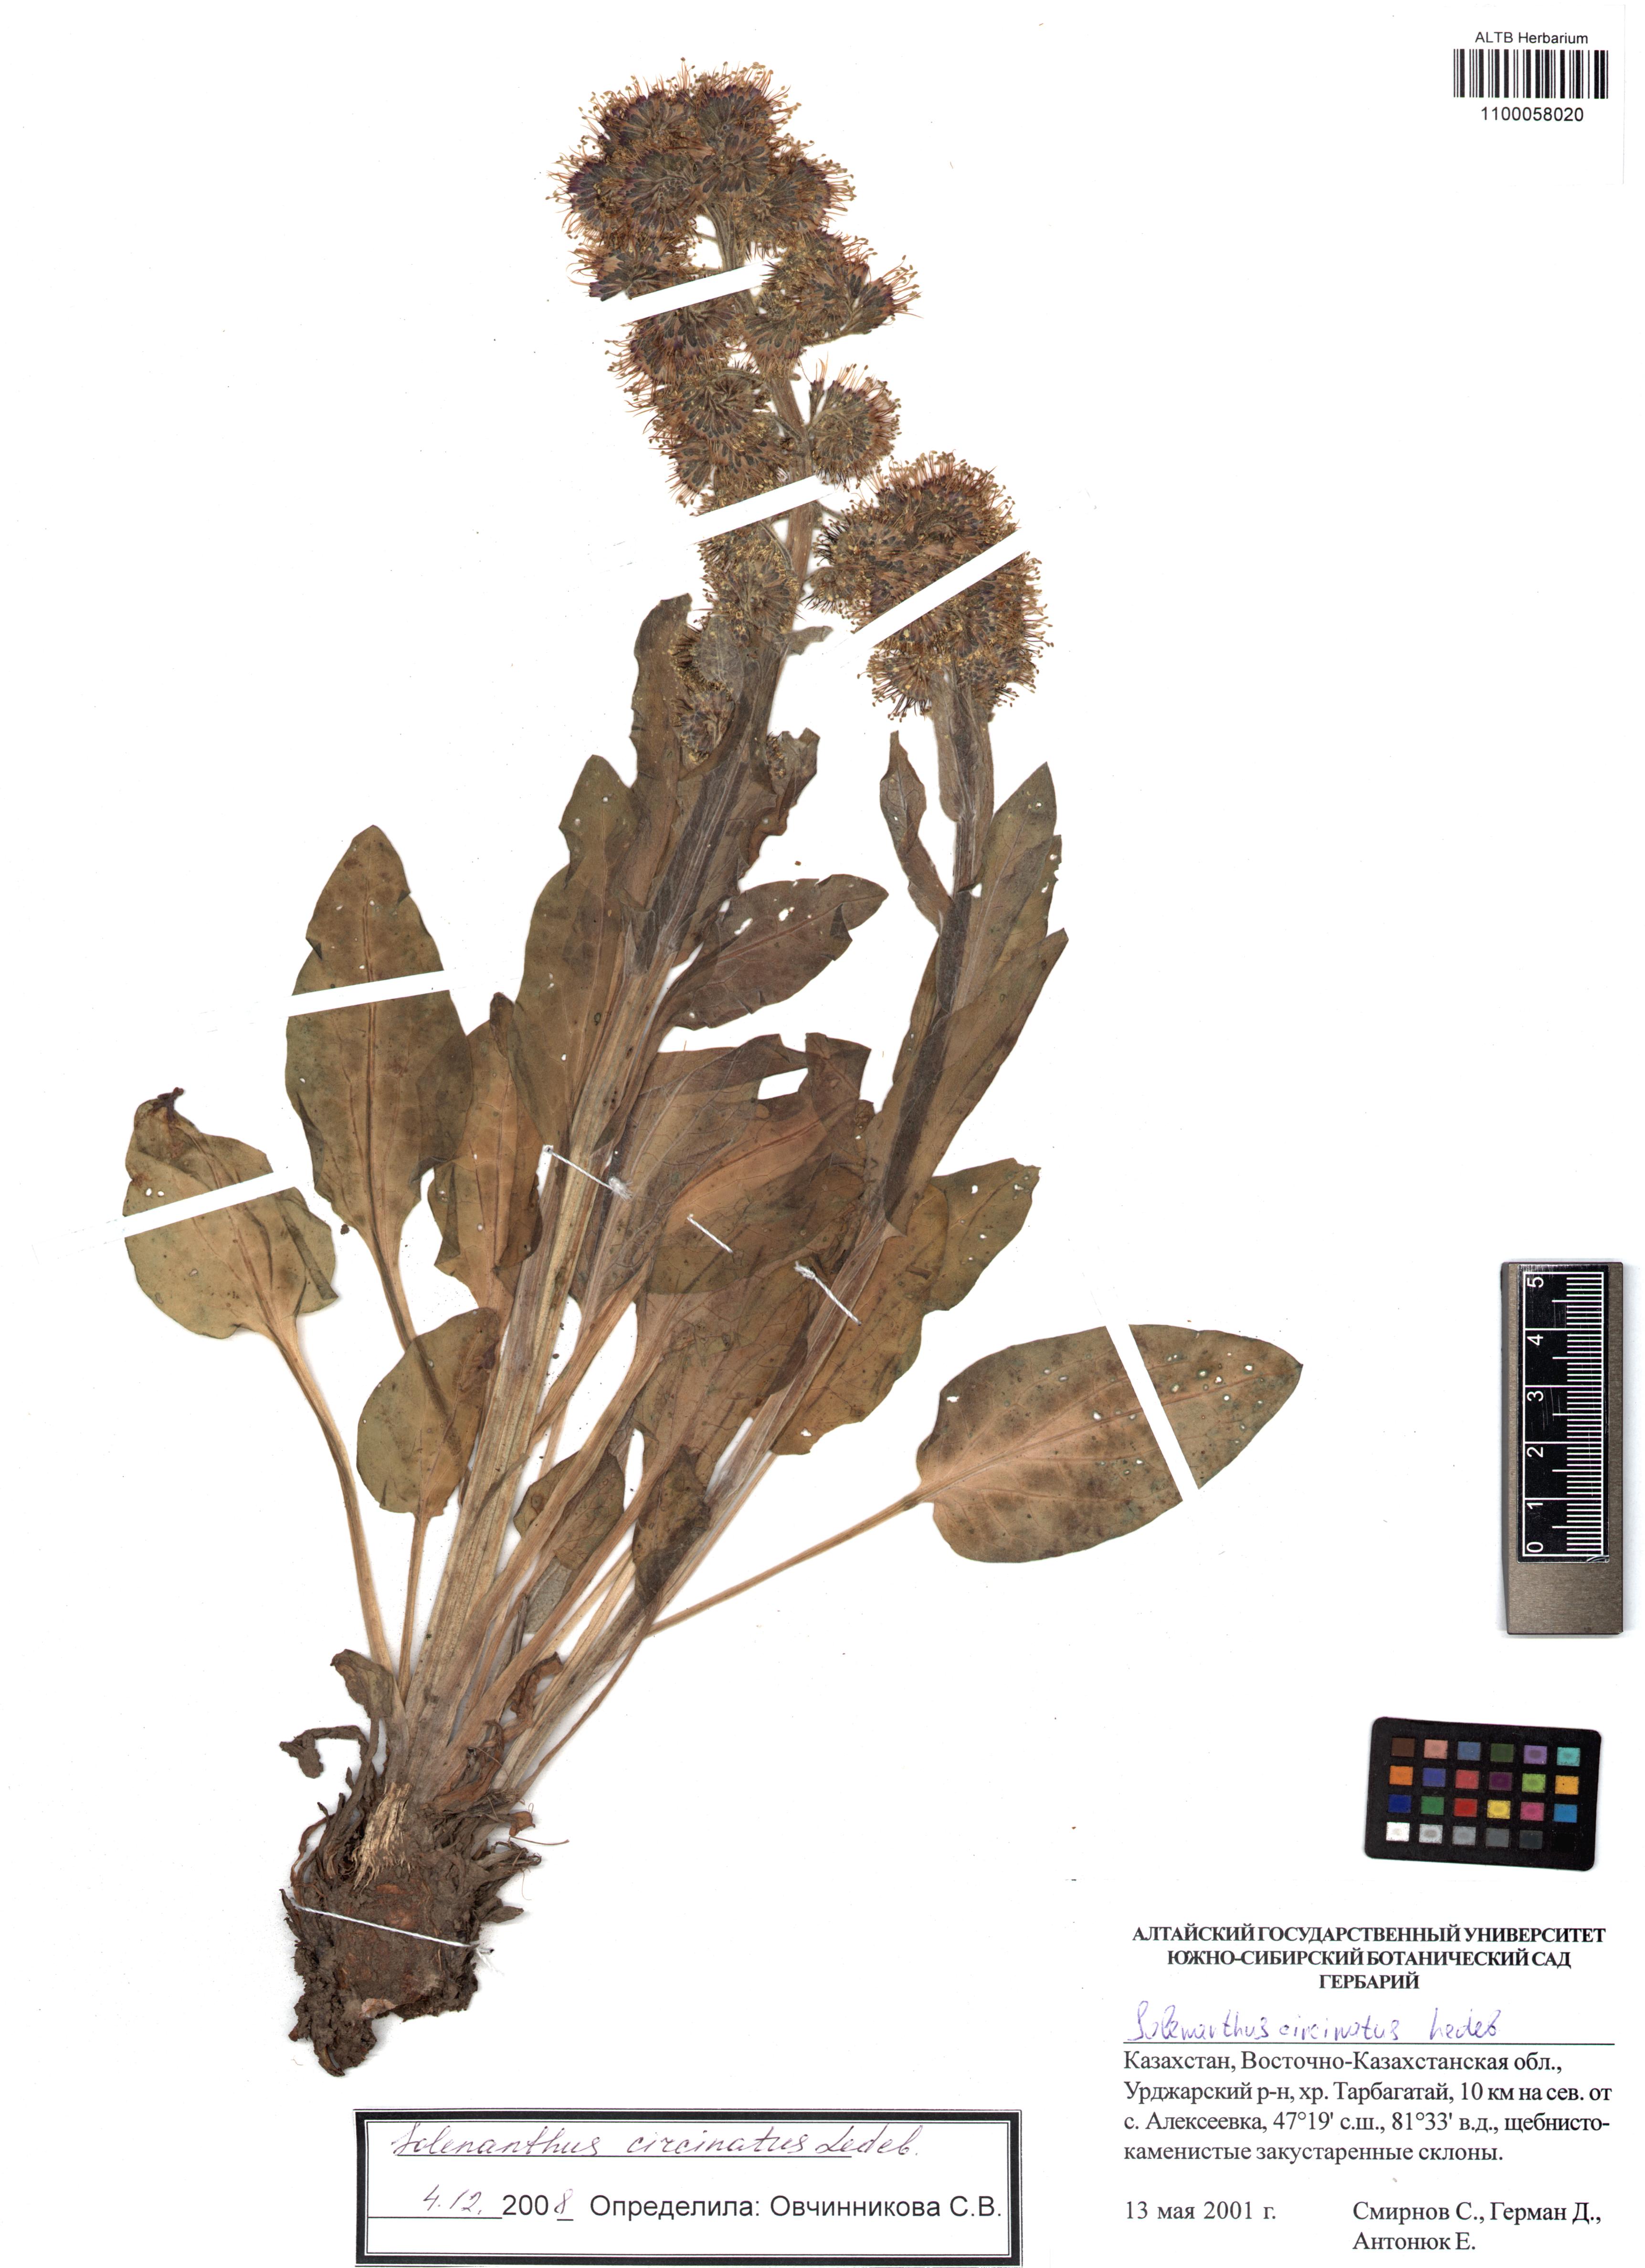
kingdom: Plantae
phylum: Tracheophyta
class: Magnoliopsida
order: Boraginales
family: Boraginaceae
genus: Solenanthus
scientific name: Solenanthus circinnatus
